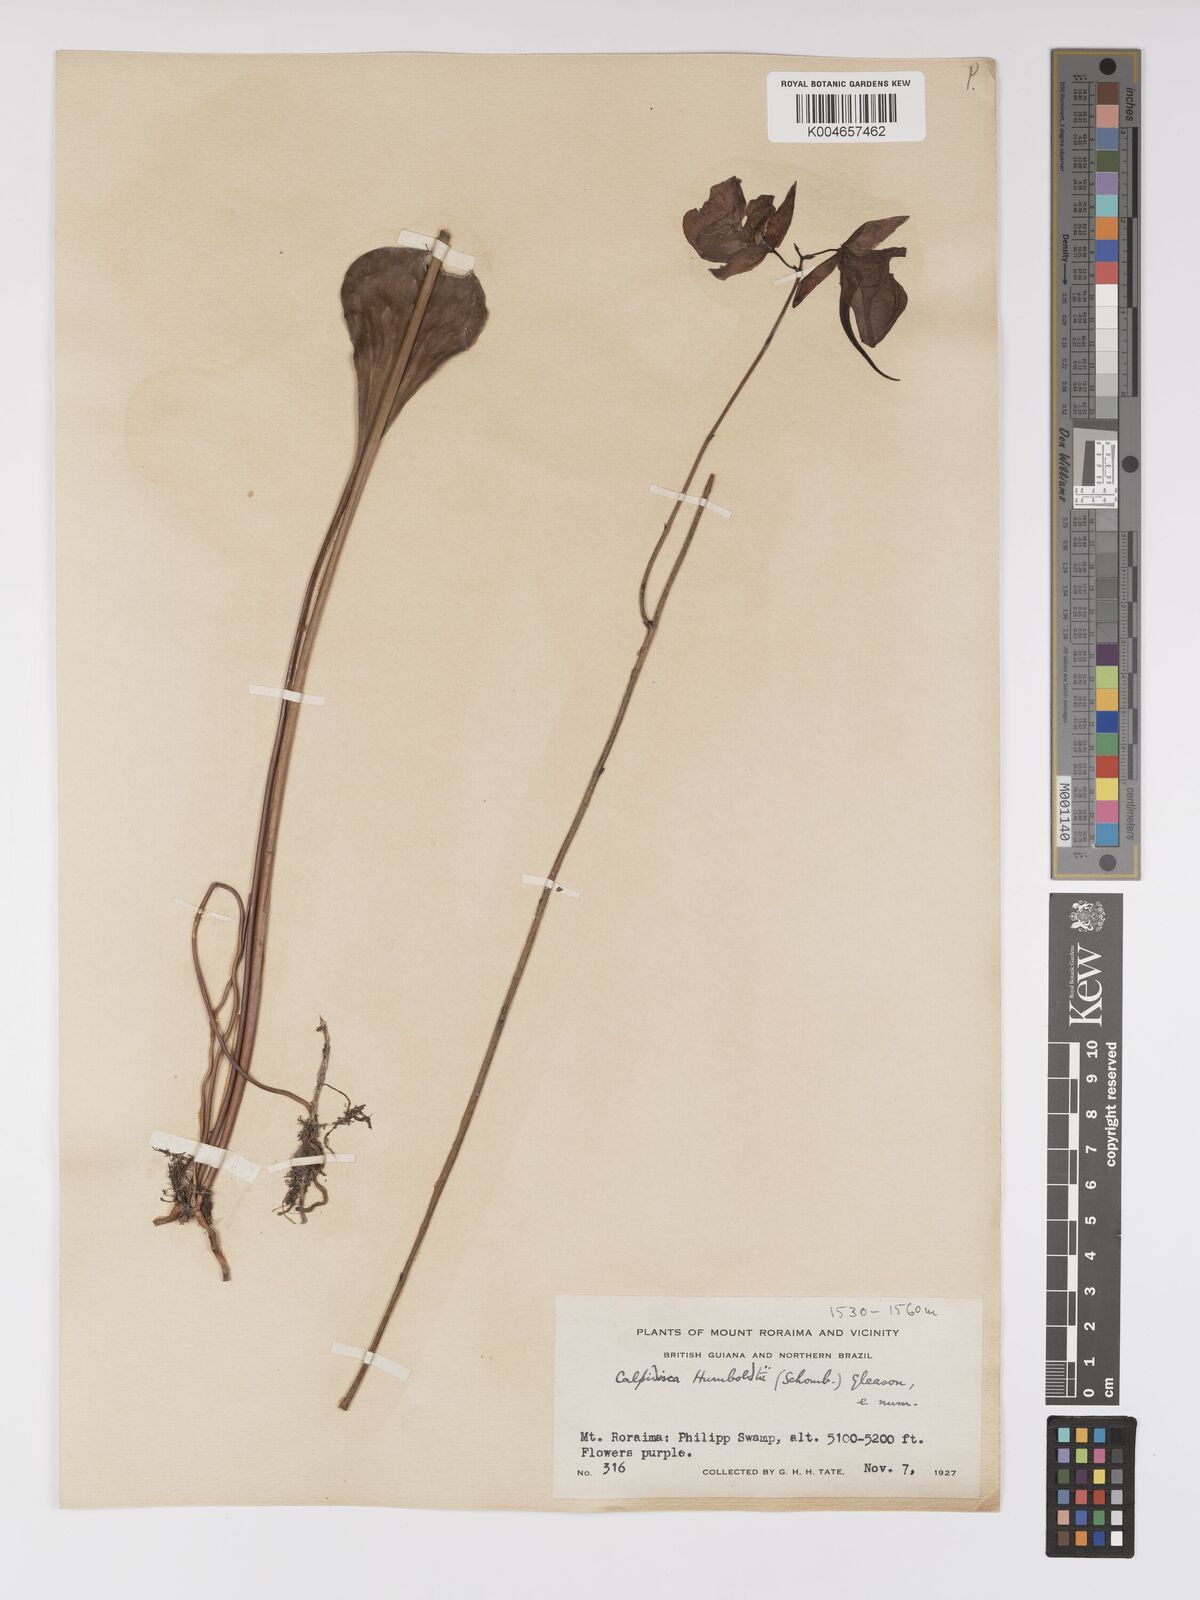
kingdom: Plantae
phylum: Tracheophyta
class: Magnoliopsida
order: Lamiales
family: Lentibulariaceae
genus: Utricularia
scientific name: Utricularia humboldtii
